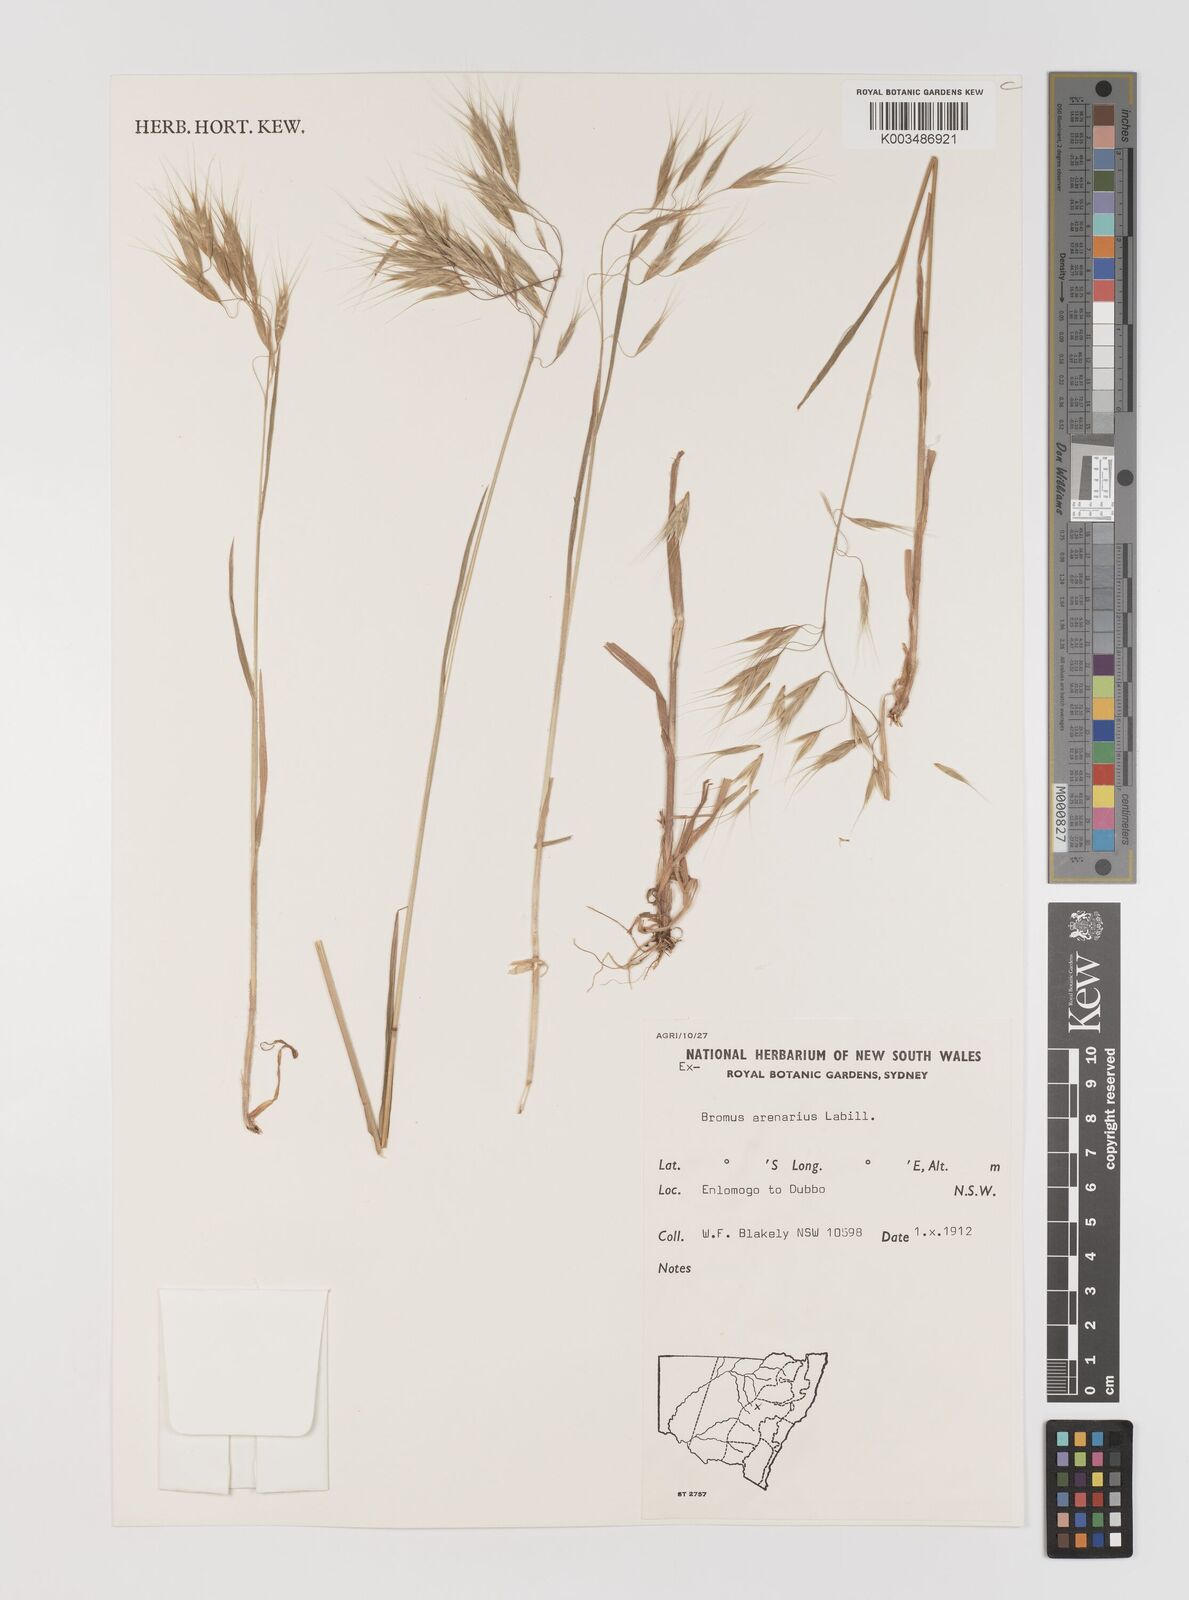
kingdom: Plantae
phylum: Tracheophyta
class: Liliopsida
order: Poales
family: Poaceae
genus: Bromus
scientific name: Bromus arenarius
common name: Australian brome
